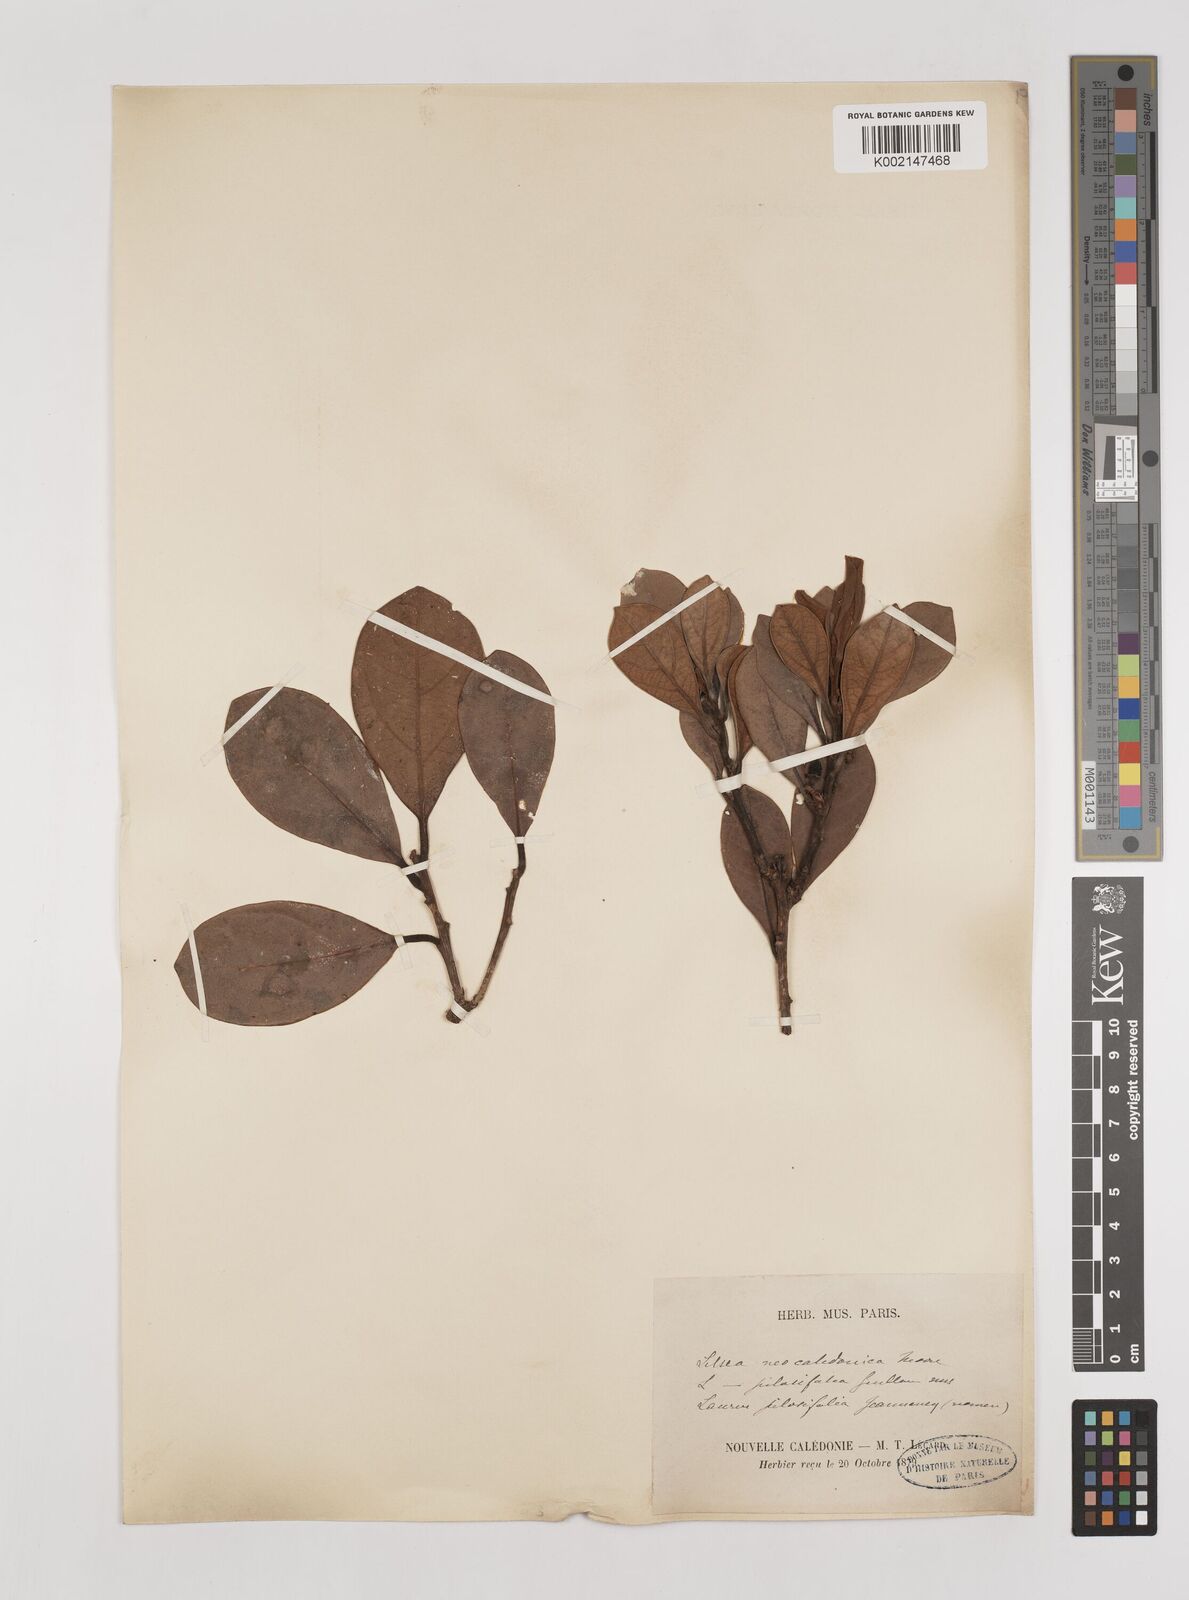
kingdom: Plantae
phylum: Tracheophyta
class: Magnoliopsida
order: Laurales
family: Lauraceae
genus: Litsea
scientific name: Litsea neocaledonica
